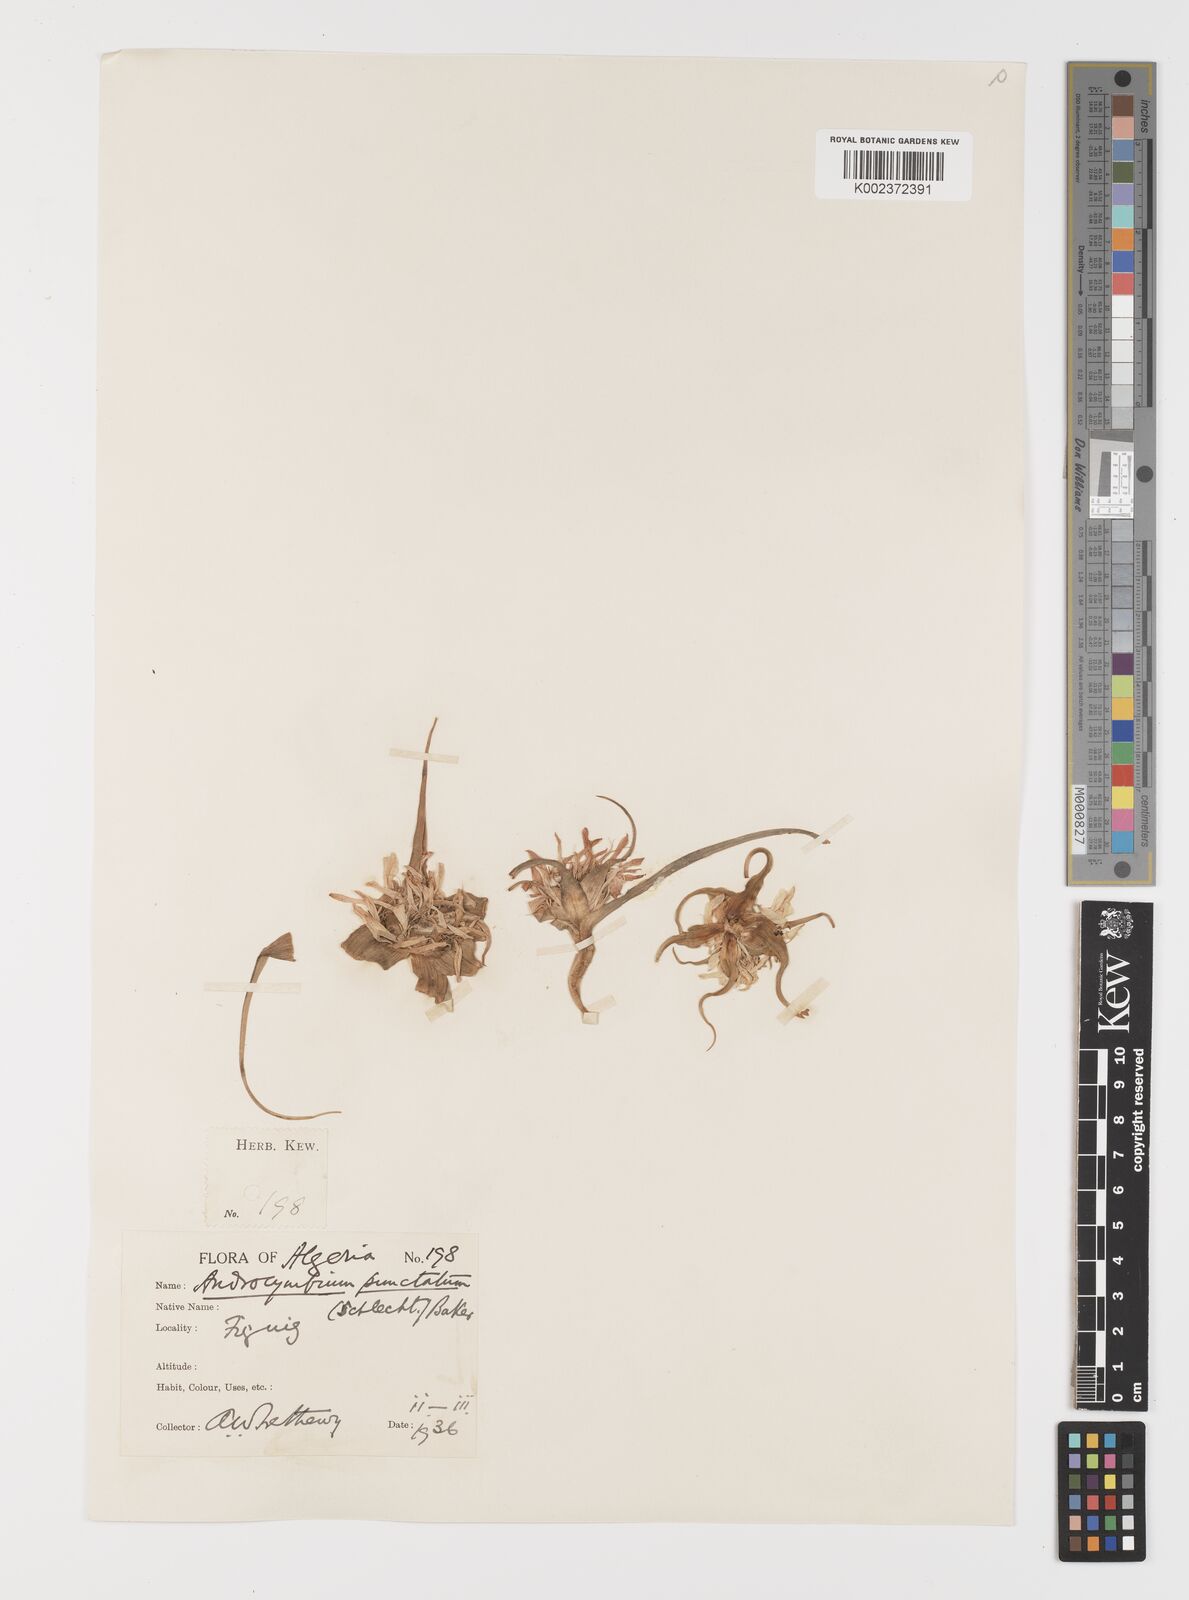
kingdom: Plantae
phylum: Tracheophyta
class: Liliopsida
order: Liliales
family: Colchicaceae
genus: Colchicum
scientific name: Colchicum gramineum
